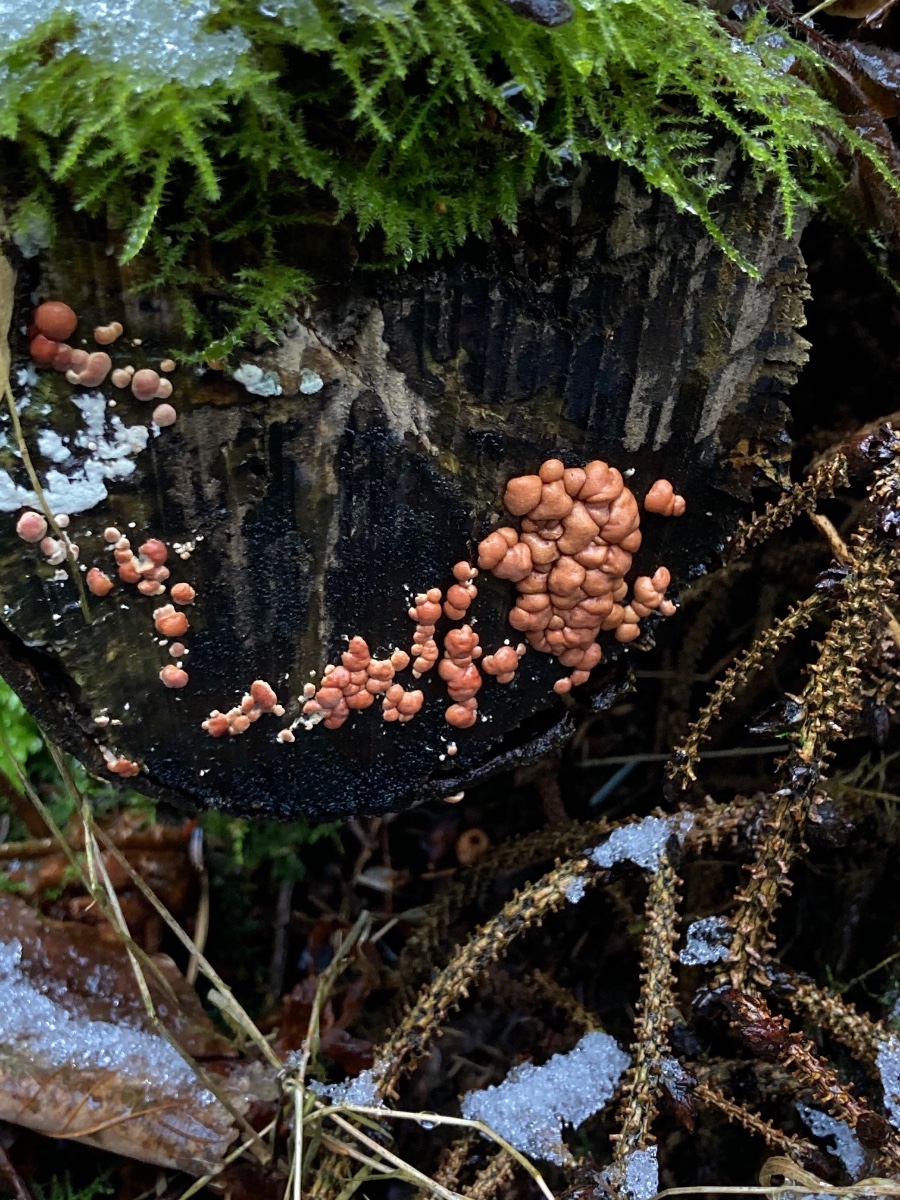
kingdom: Fungi
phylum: Ascomycota
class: Sordariomycetes
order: Hypocreales
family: Hypocreaceae
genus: Trichoderma
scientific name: Trichoderma
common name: kødkerne
